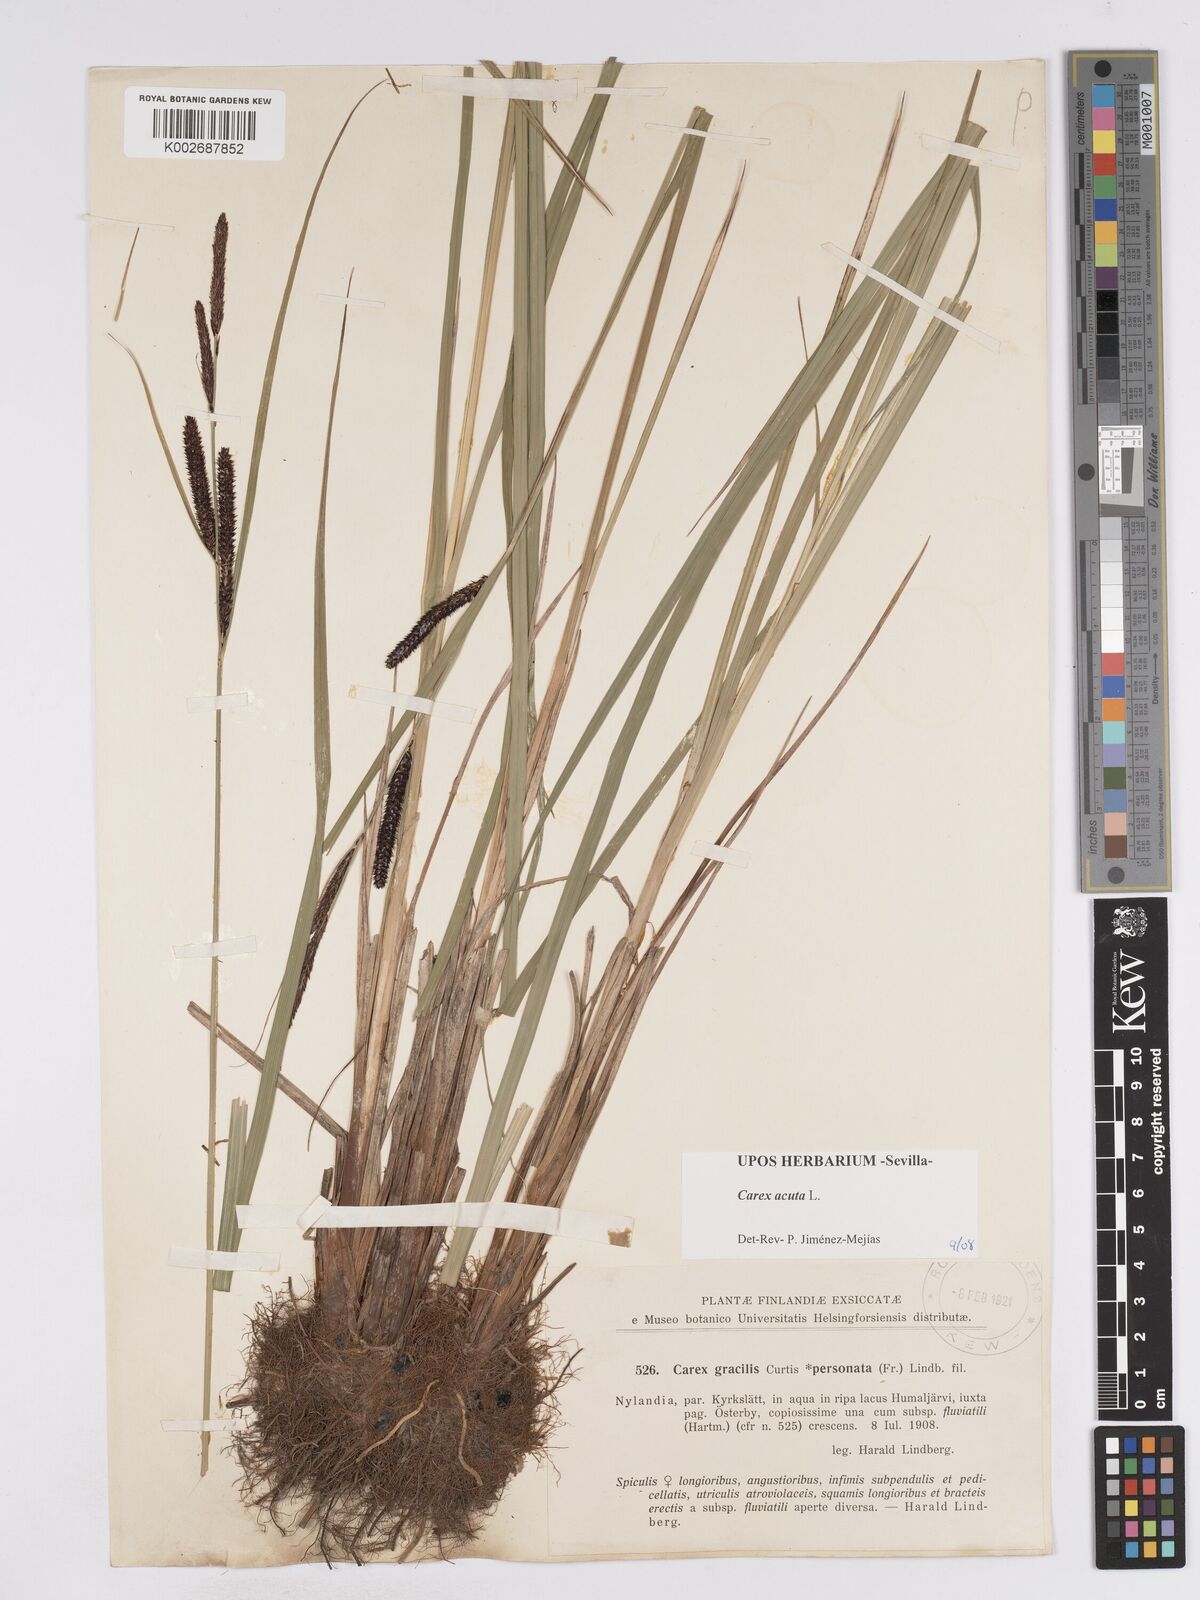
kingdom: Plantae
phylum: Tracheophyta
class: Liliopsida
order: Poales
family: Cyperaceae
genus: Carex
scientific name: Carex acuta
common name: Slender tufted-sedge
